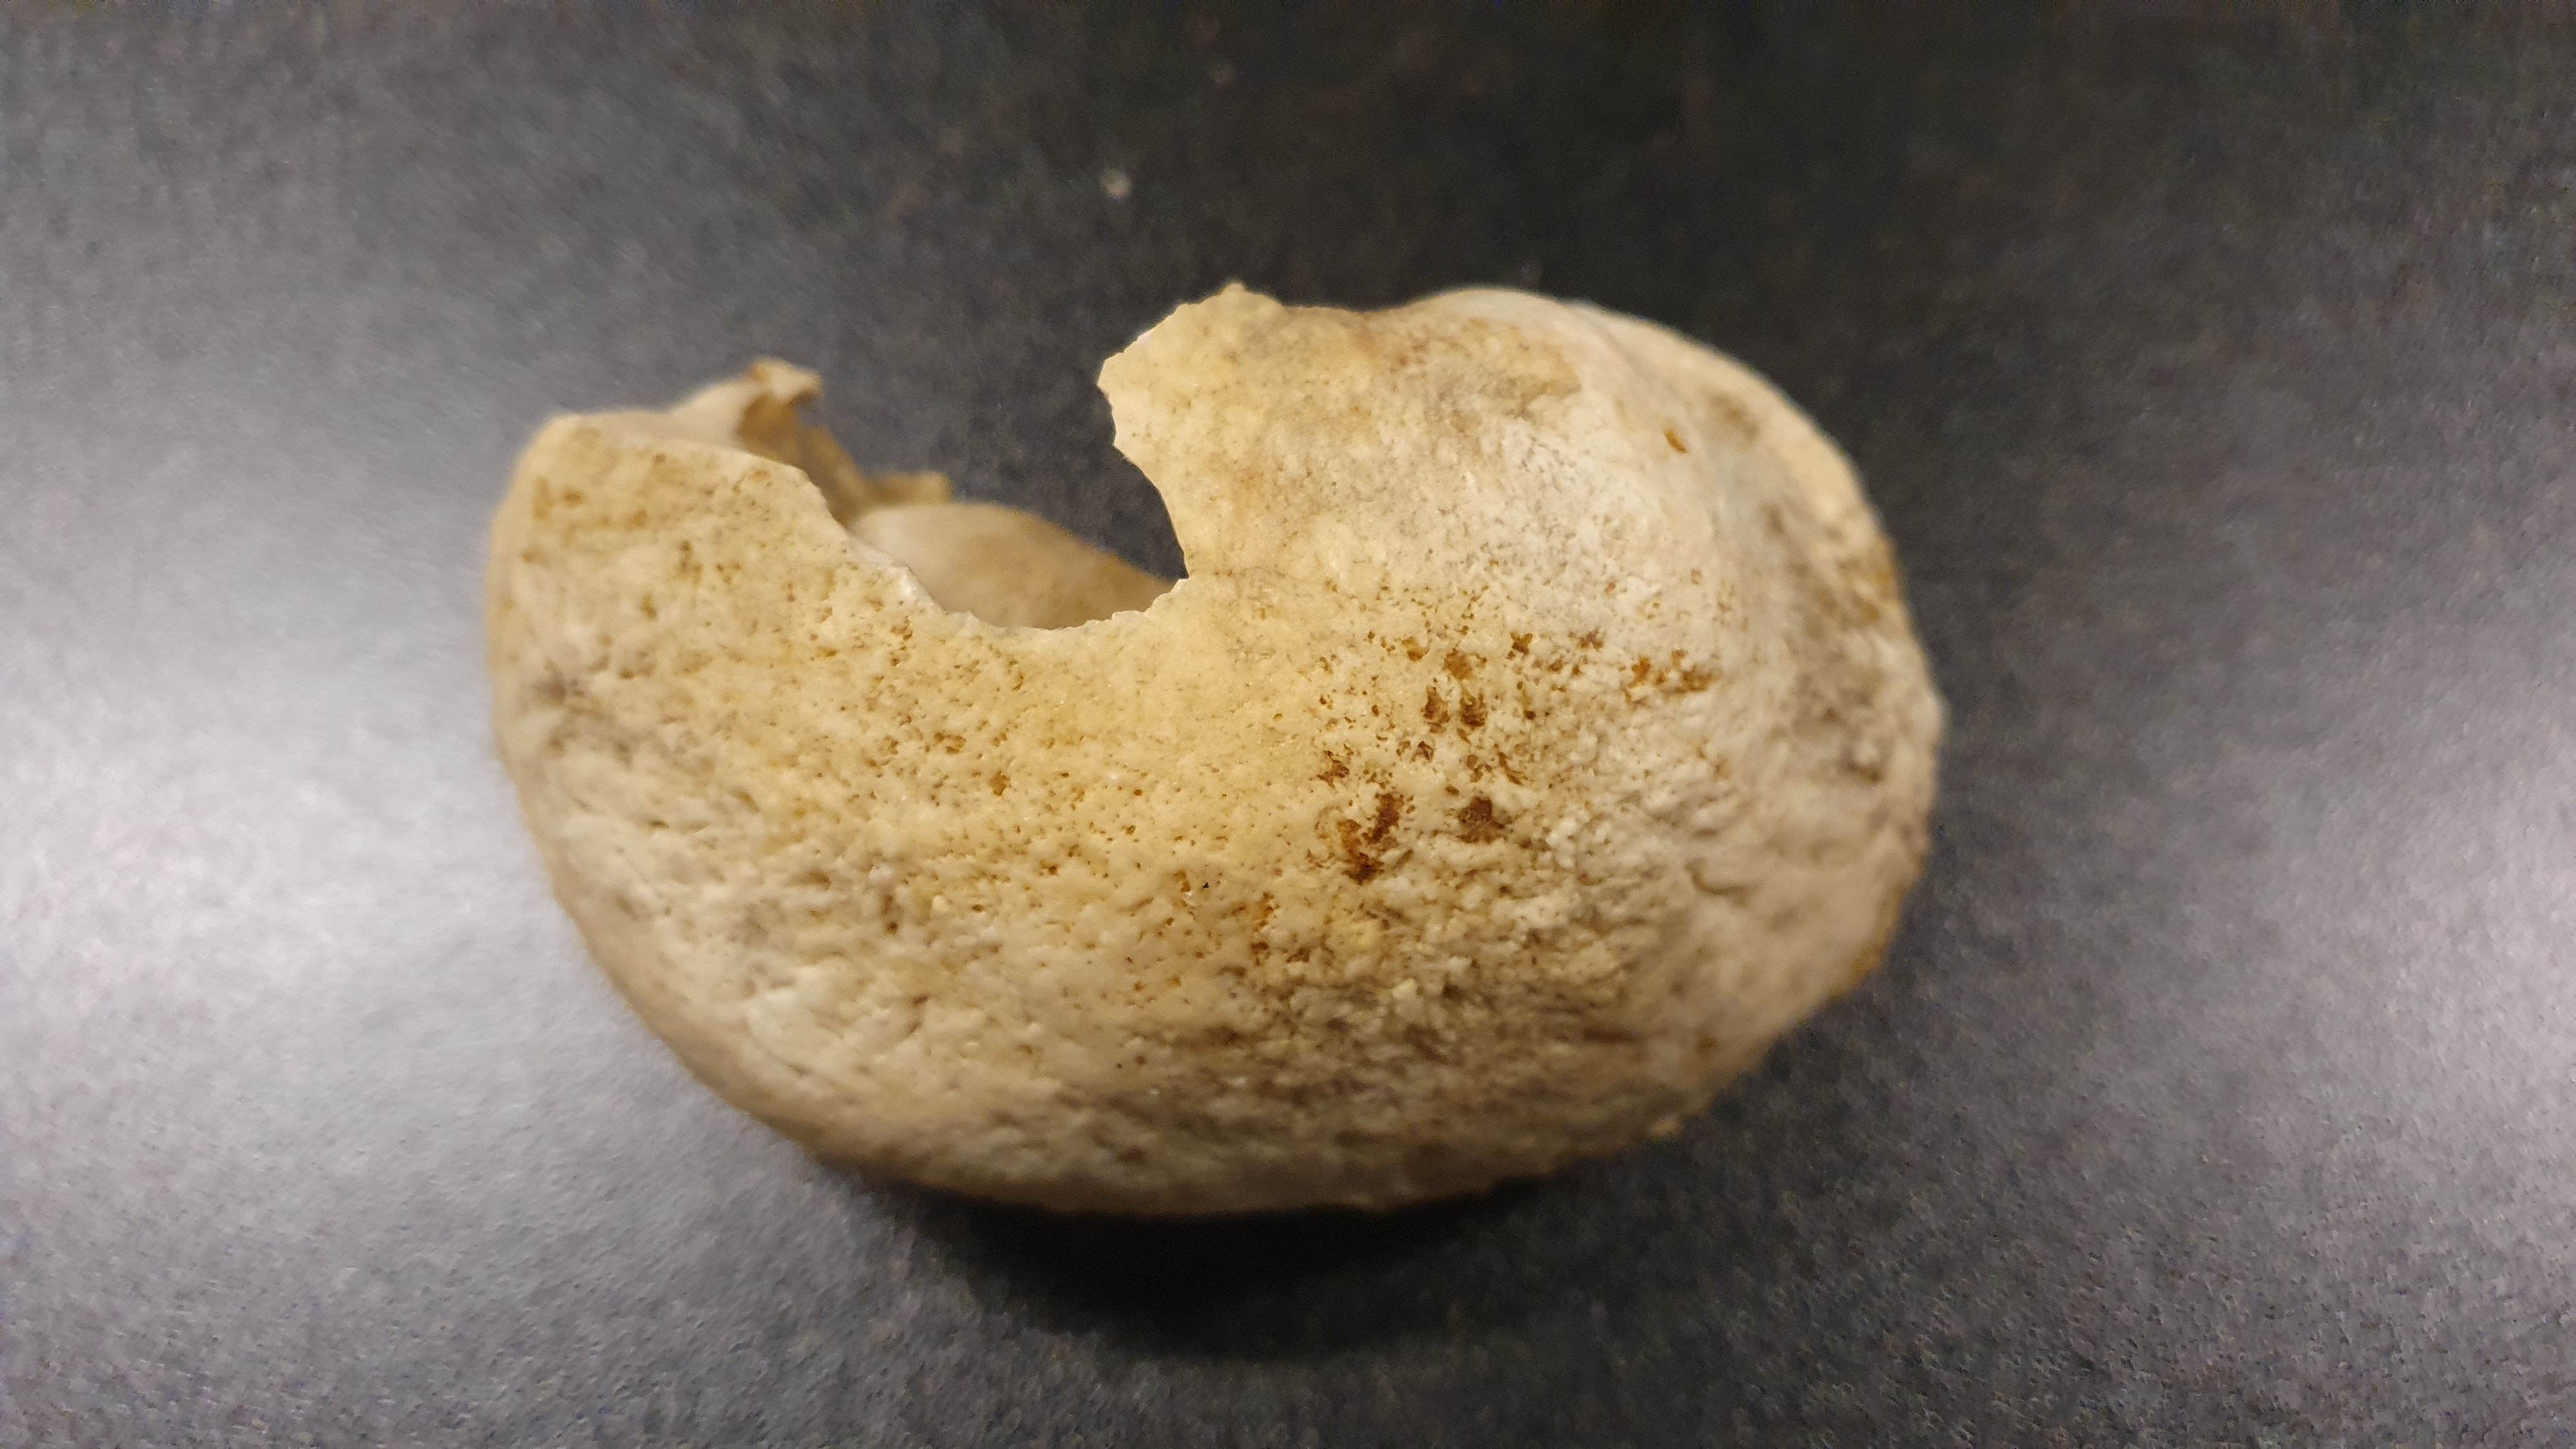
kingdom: Animalia
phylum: Chordata
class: Mammalia
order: Cetacea
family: Balaenopteridae
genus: Balaenoptera
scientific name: Balaenoptera acutorostrata
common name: Common minke whale
